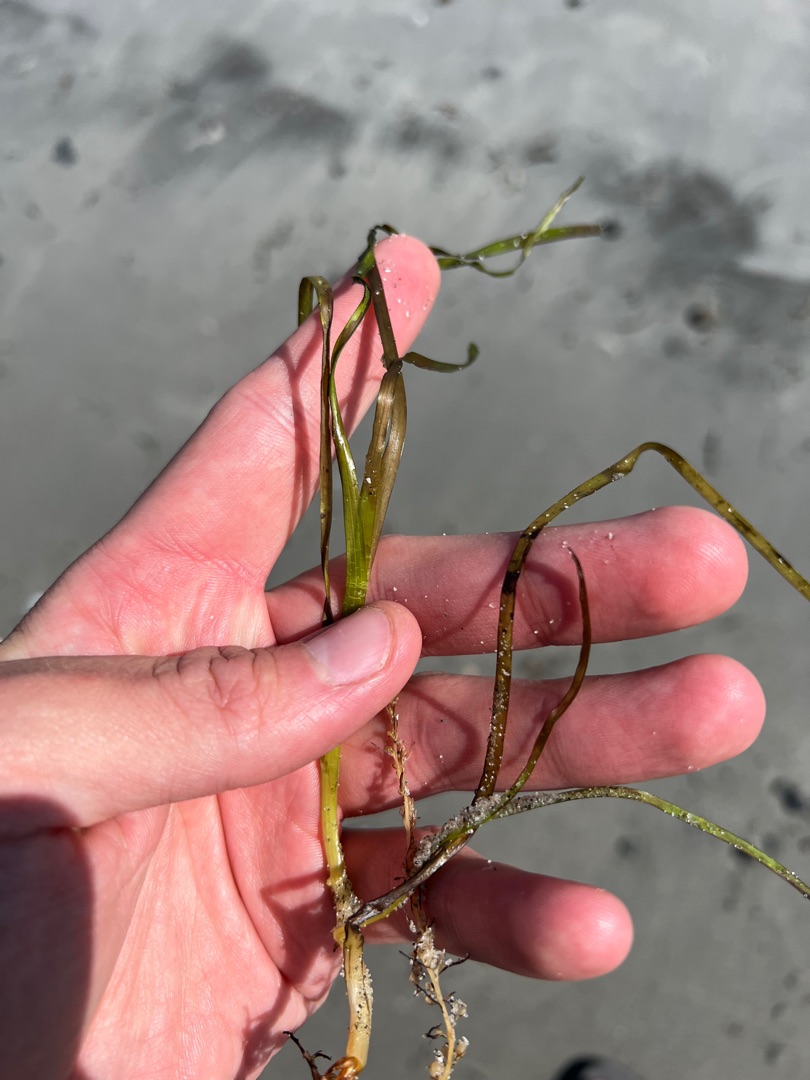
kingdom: Plantae
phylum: Tracheophyta
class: Liliopsida
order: Alismatales
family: Zosteraceae
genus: Zostera
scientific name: Zostera marina
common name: Almindelig bændeltang
